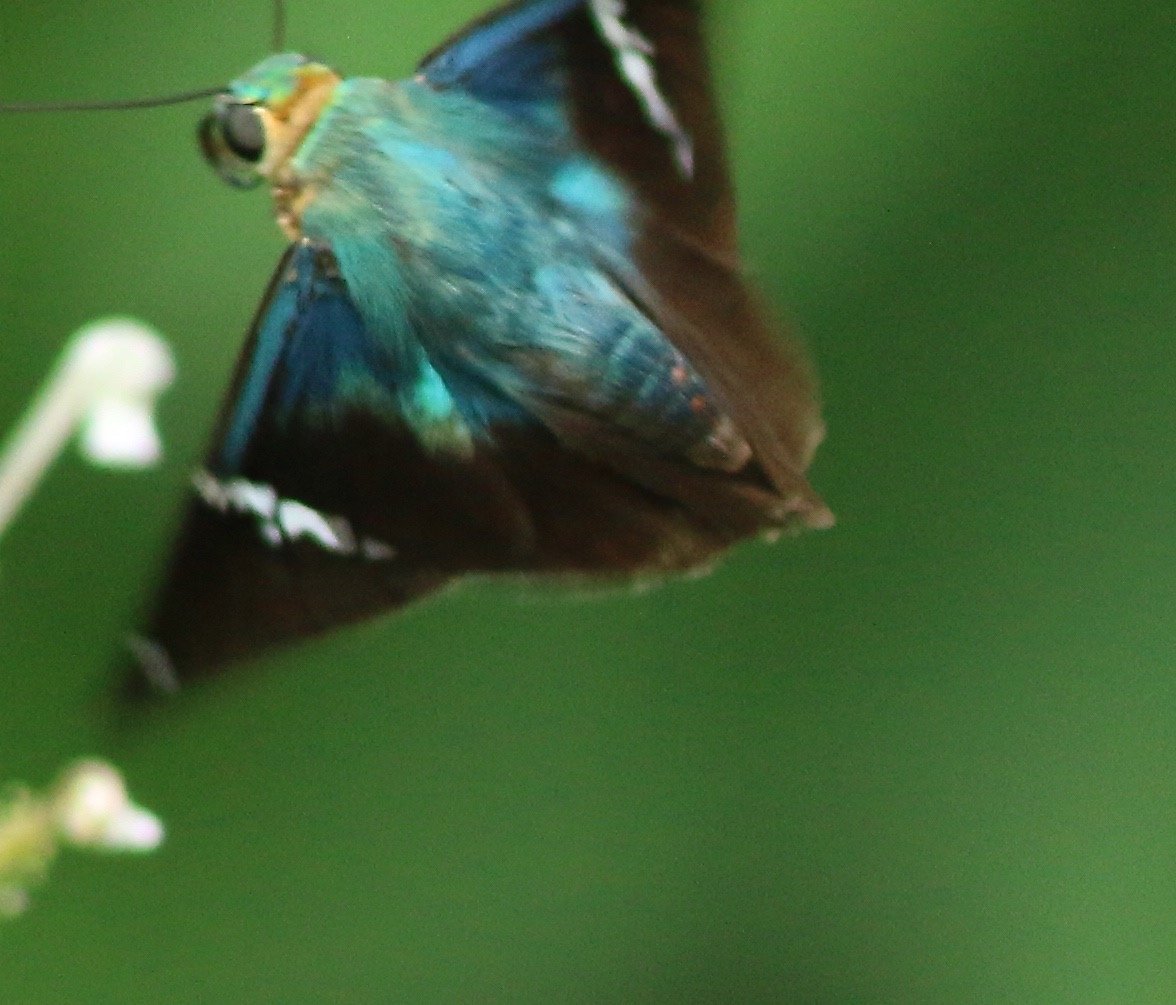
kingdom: Animalia
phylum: Arthropoda
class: Insecta
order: Lepidoptera
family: Hesperiidae
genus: Astraptes
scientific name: Astraptes fulgerator
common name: Two-barred Flasher
